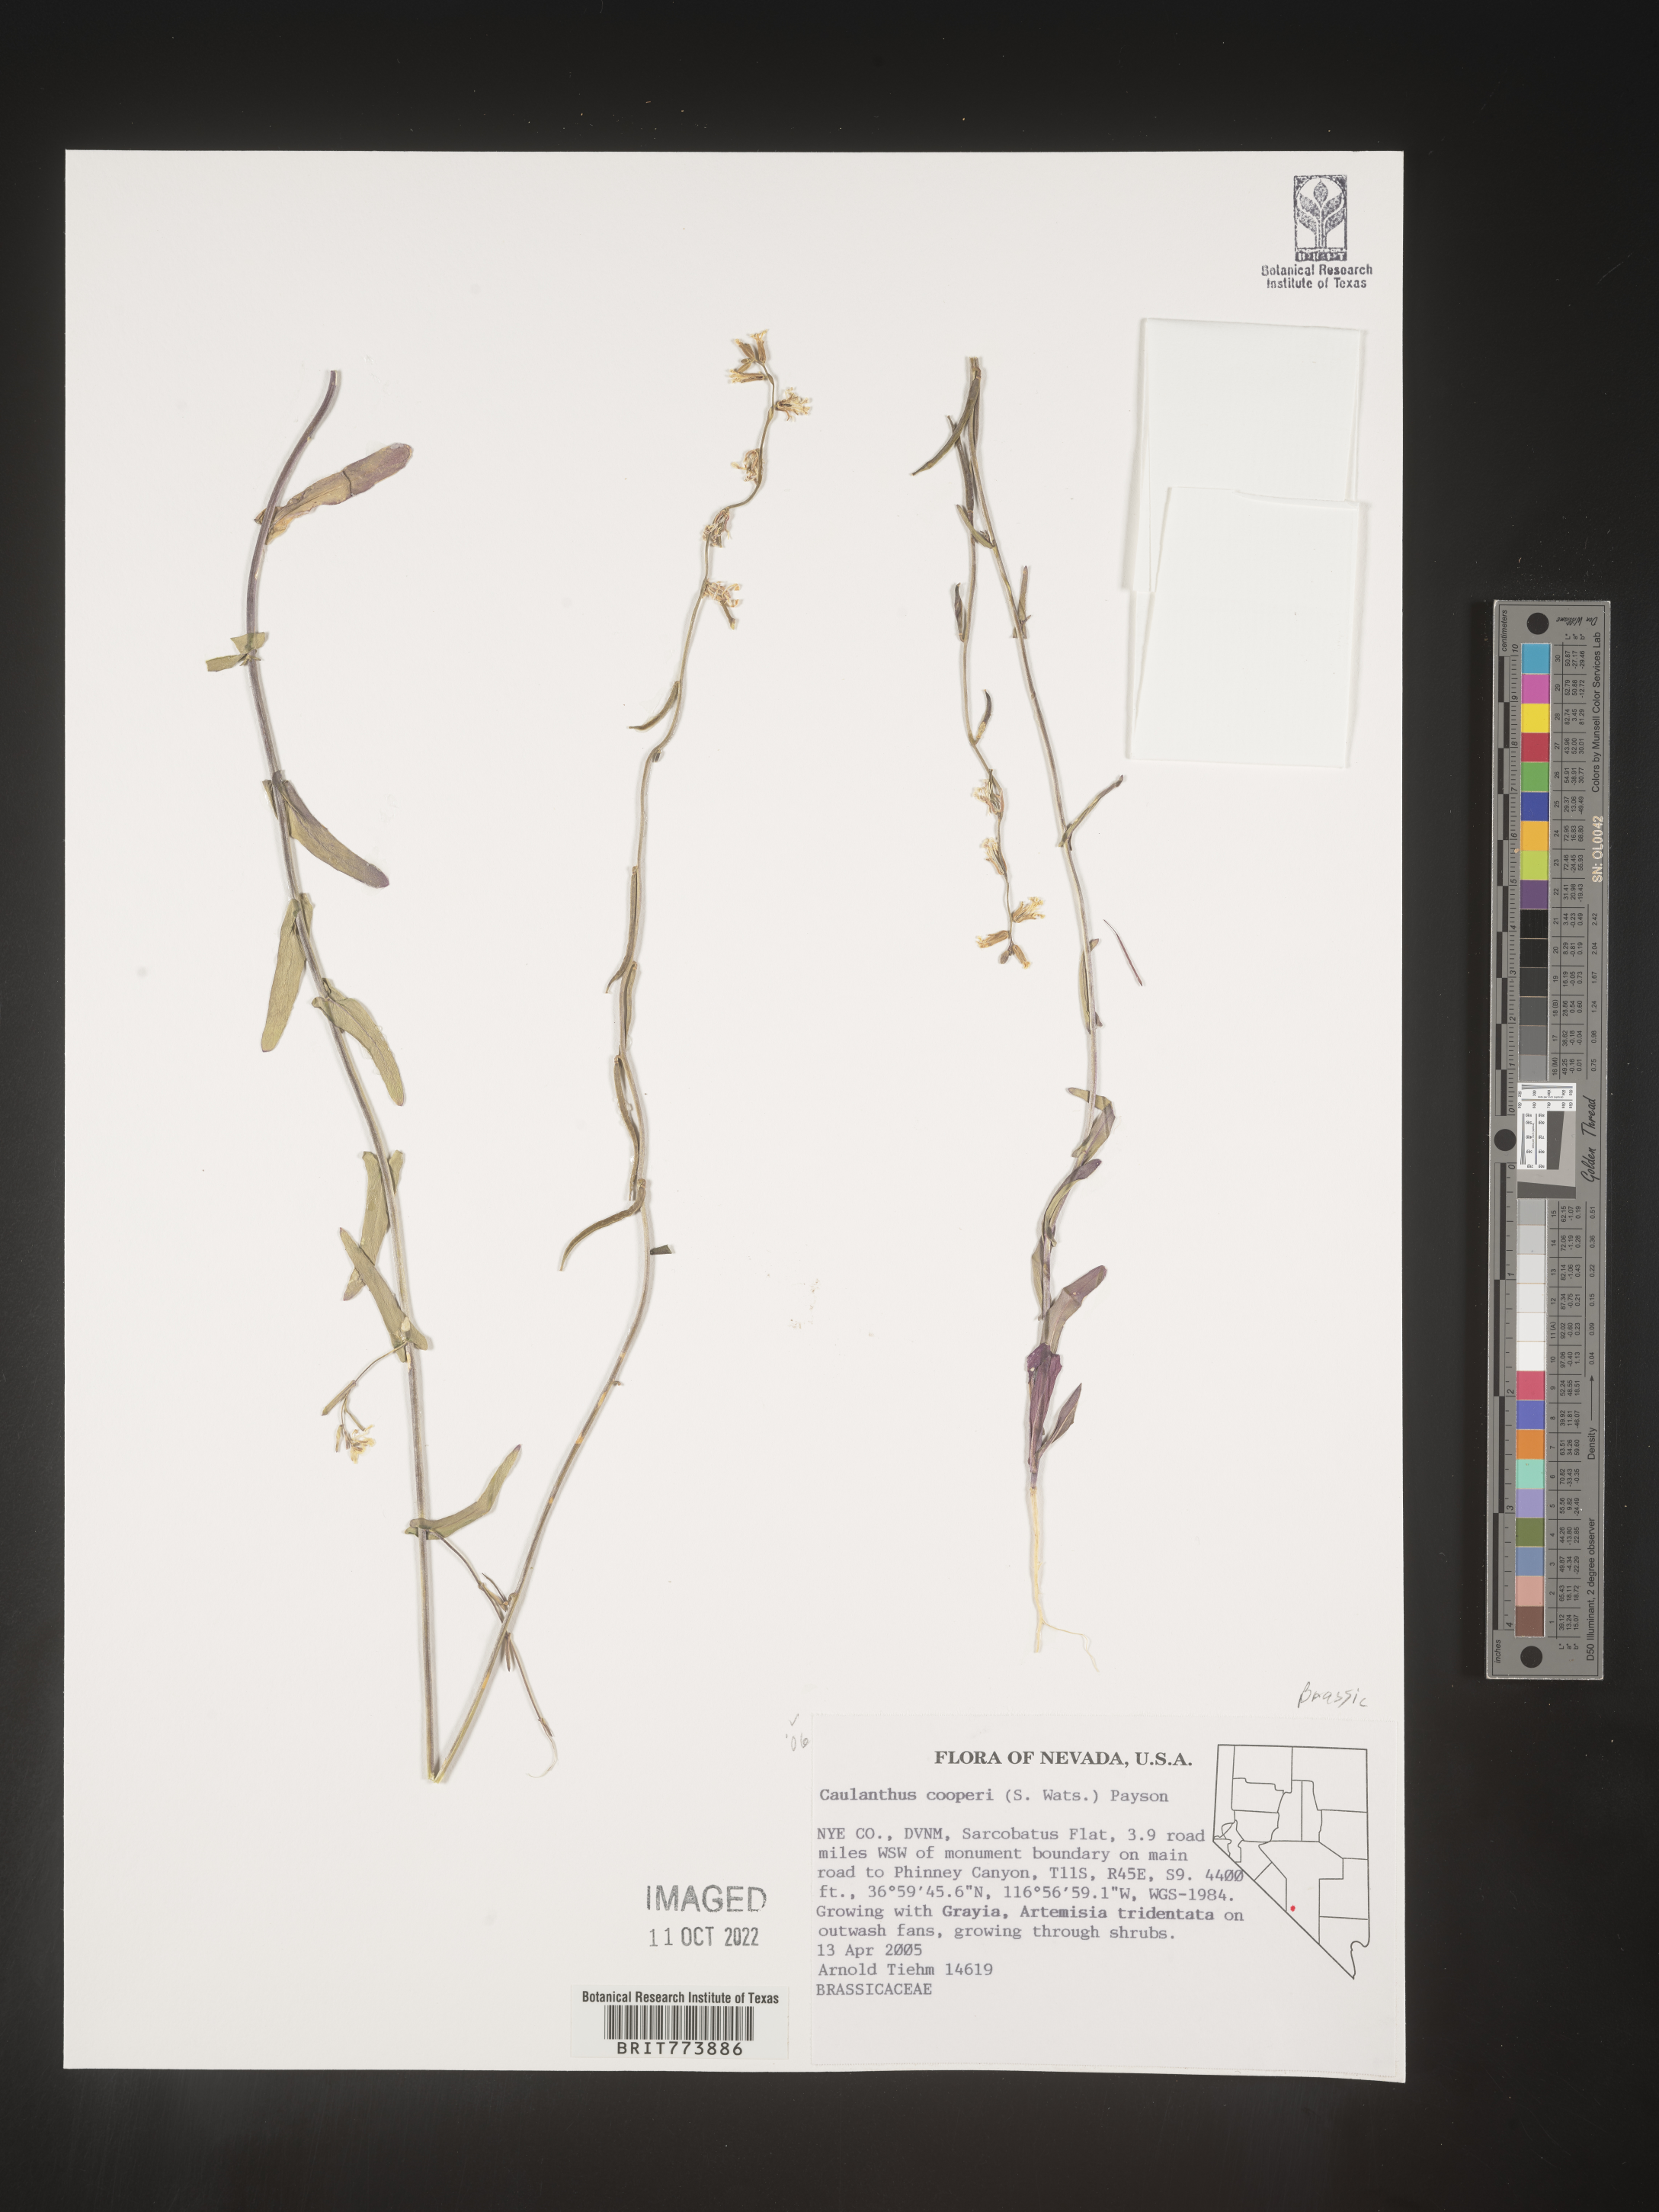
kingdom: Plantae
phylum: Tracheophyta
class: Magnoliopsida
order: Brassicales
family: Brassicaceae
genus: Streptanthus
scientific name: Streptanthus
